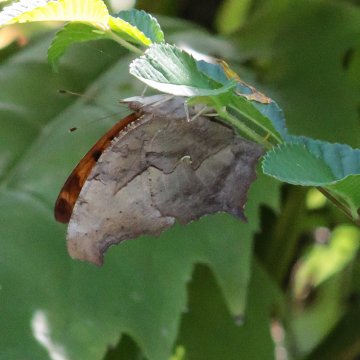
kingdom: Animalia
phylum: Arthropoda
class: Insecta
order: Lepidoptera
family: Nymphalidae
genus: Polygonia
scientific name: Polygonia interrogationis
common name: Question Mark
